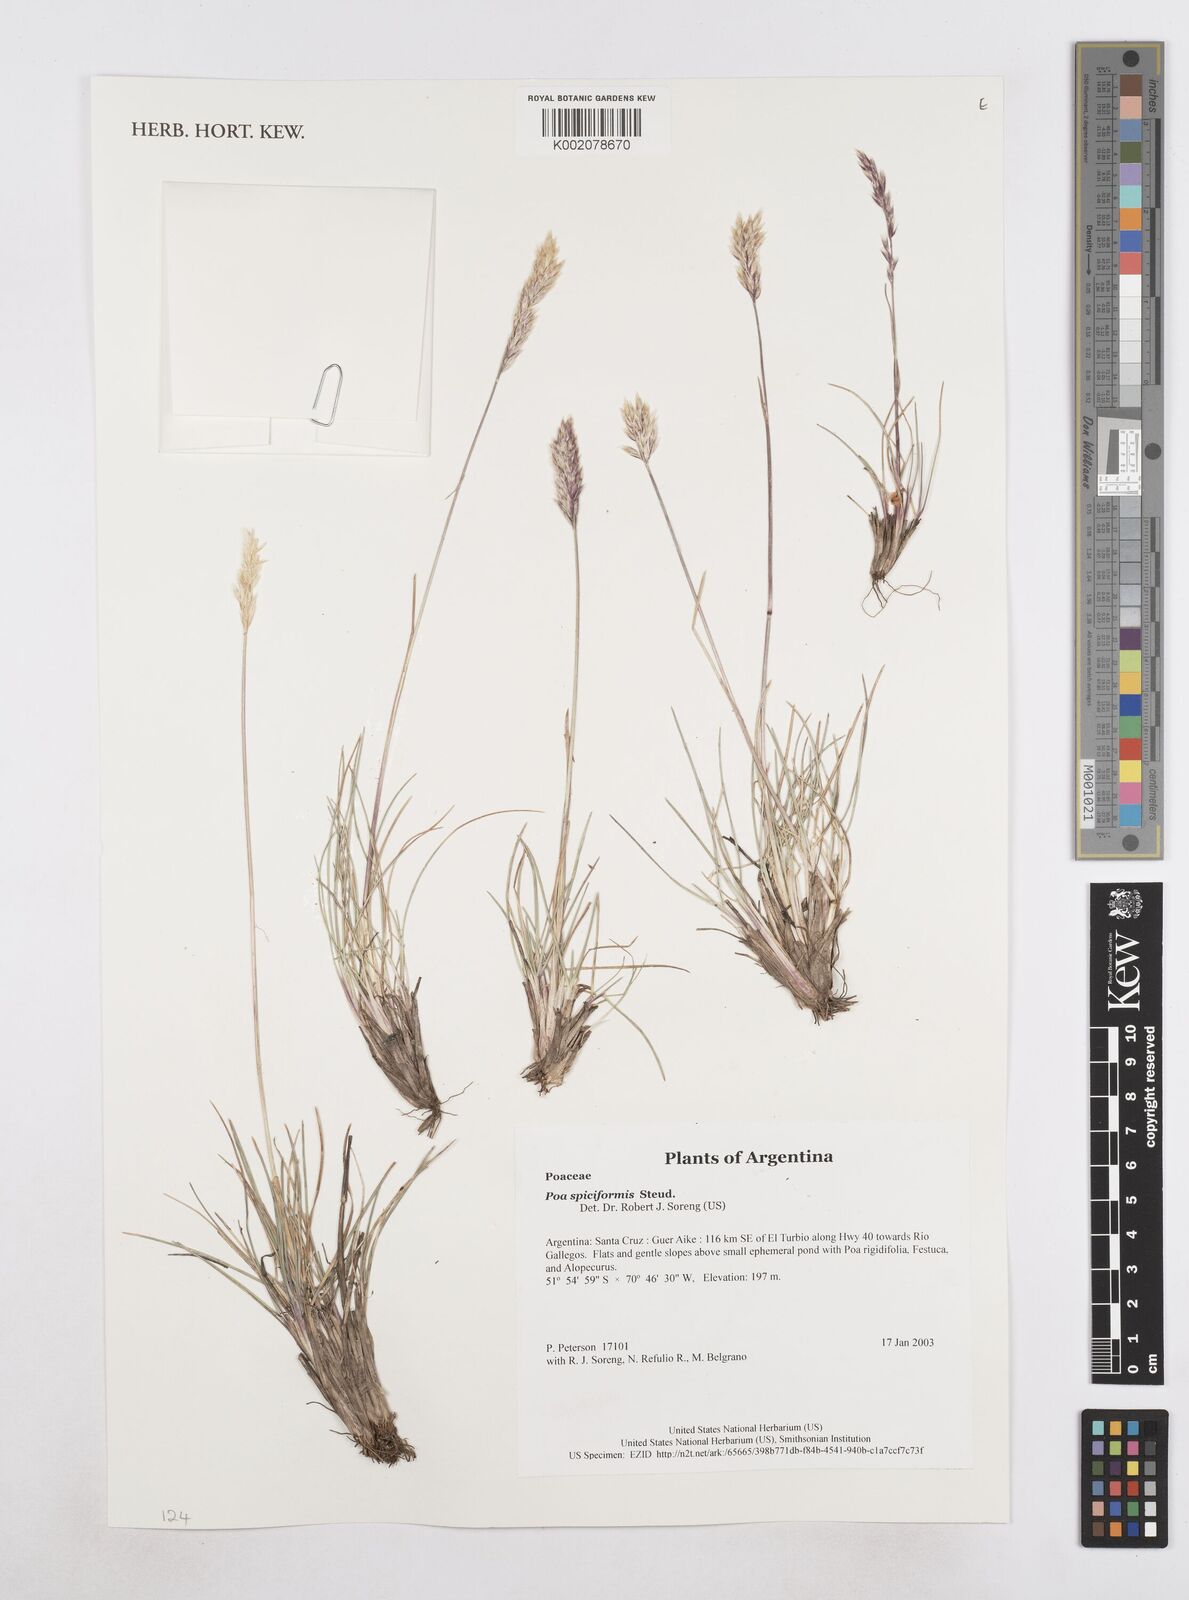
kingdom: Plantae
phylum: Tracheophyta
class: Liliopsida
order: Poales
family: Poaceae
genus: Poa
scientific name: Poa spiciformis
